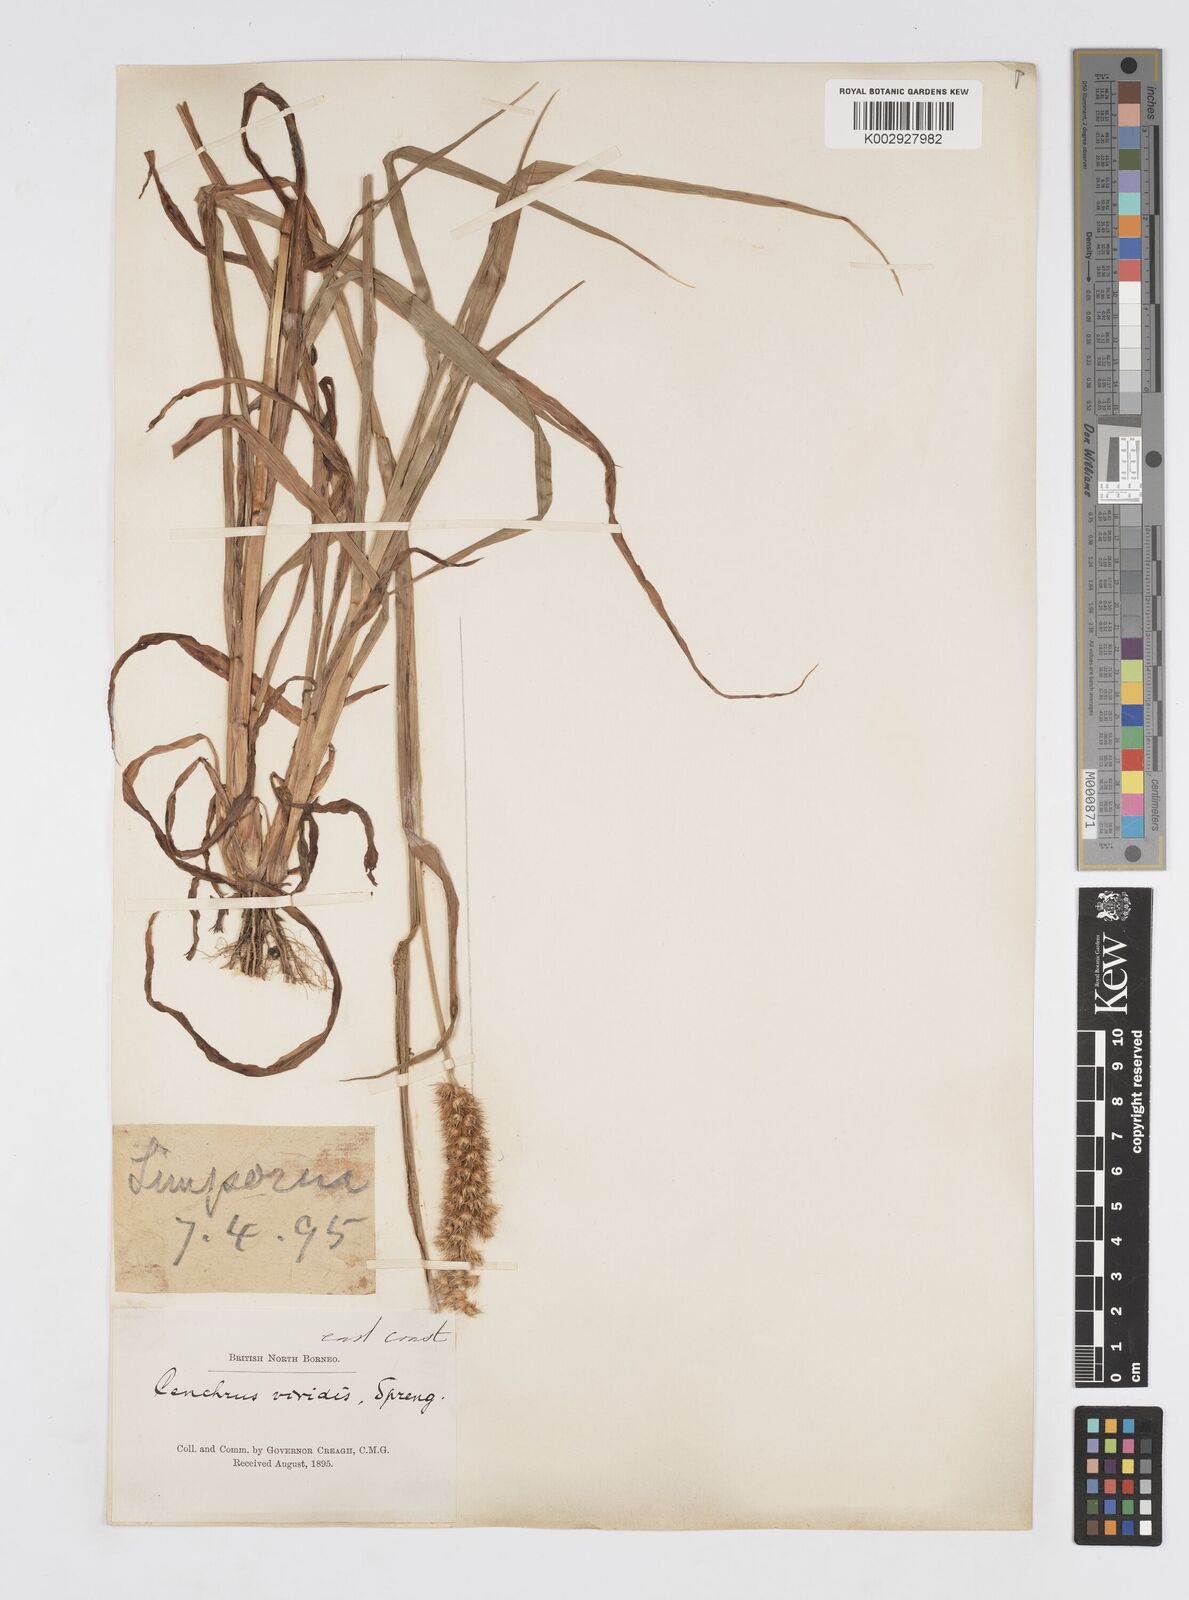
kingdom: Plantae
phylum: Tracheophyta
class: Liliopsida
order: Poales
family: Poaceae
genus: Cenchrus
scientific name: Cenchrus brownii
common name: Slim-bristle sandbur
